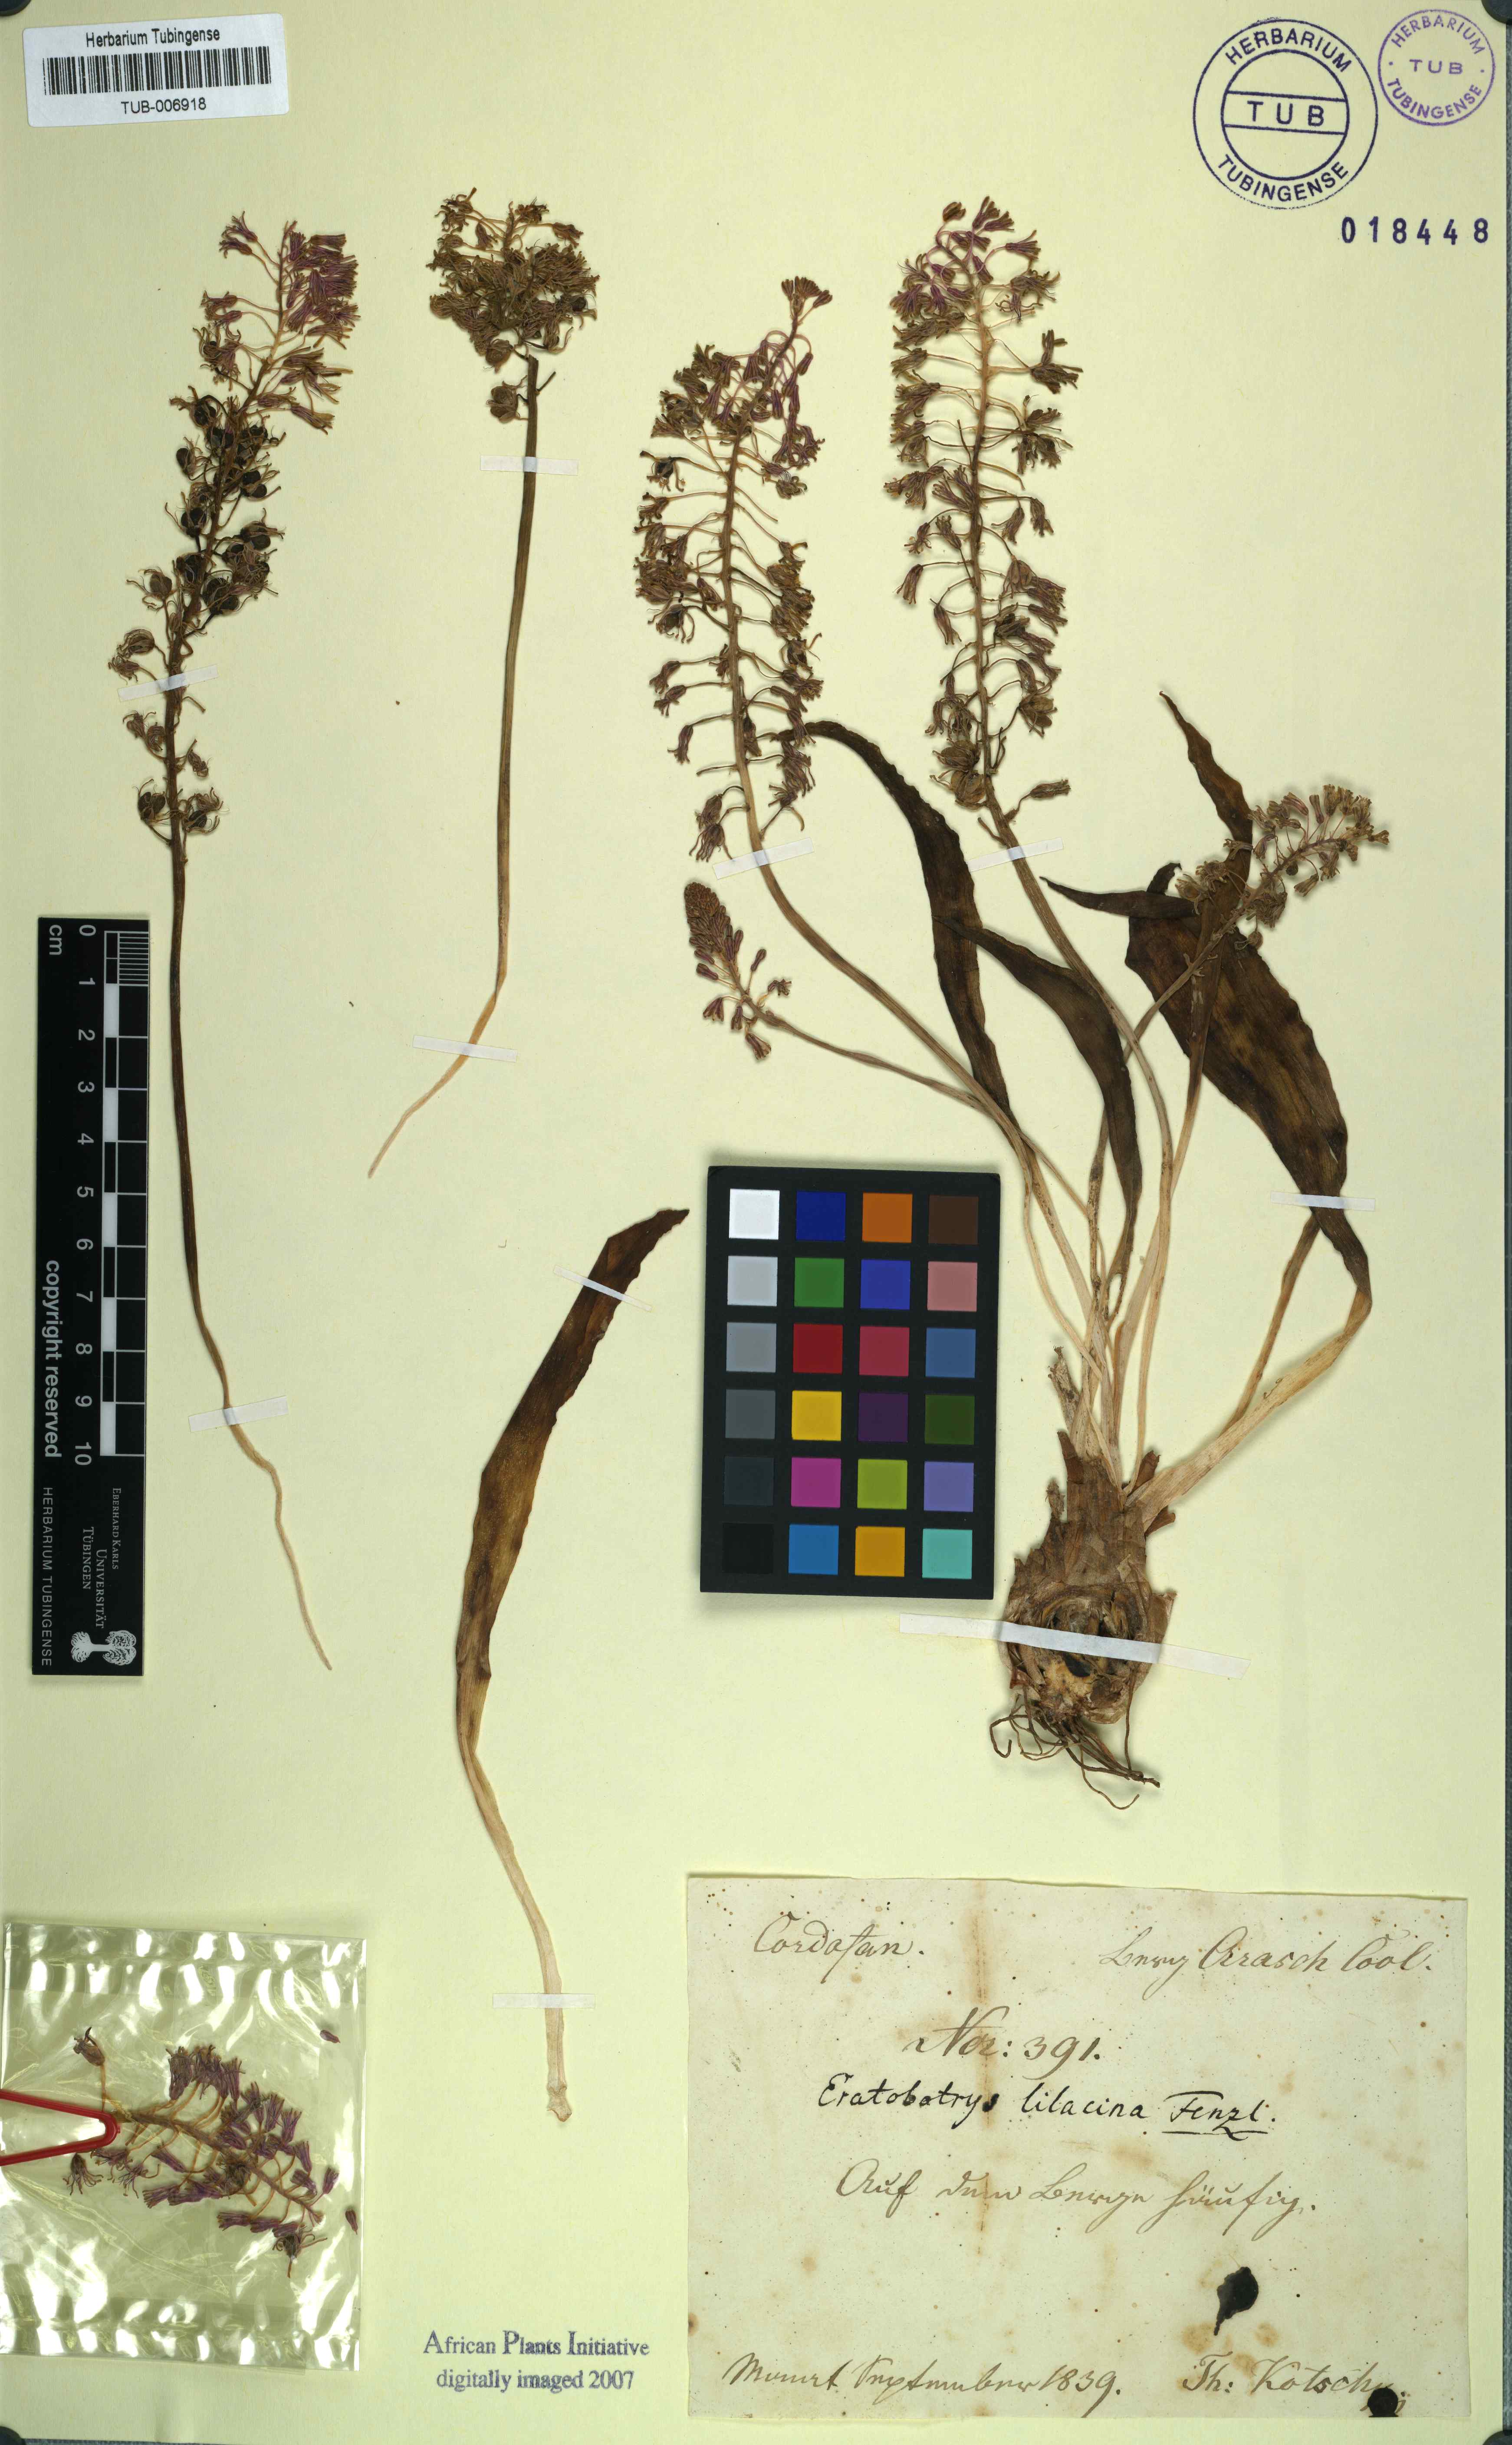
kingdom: Plantae
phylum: Tracheophyta
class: Liliopsida
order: Asparagales
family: Asparagaceae
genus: Ledebouria
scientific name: Ledebouria lilacina
